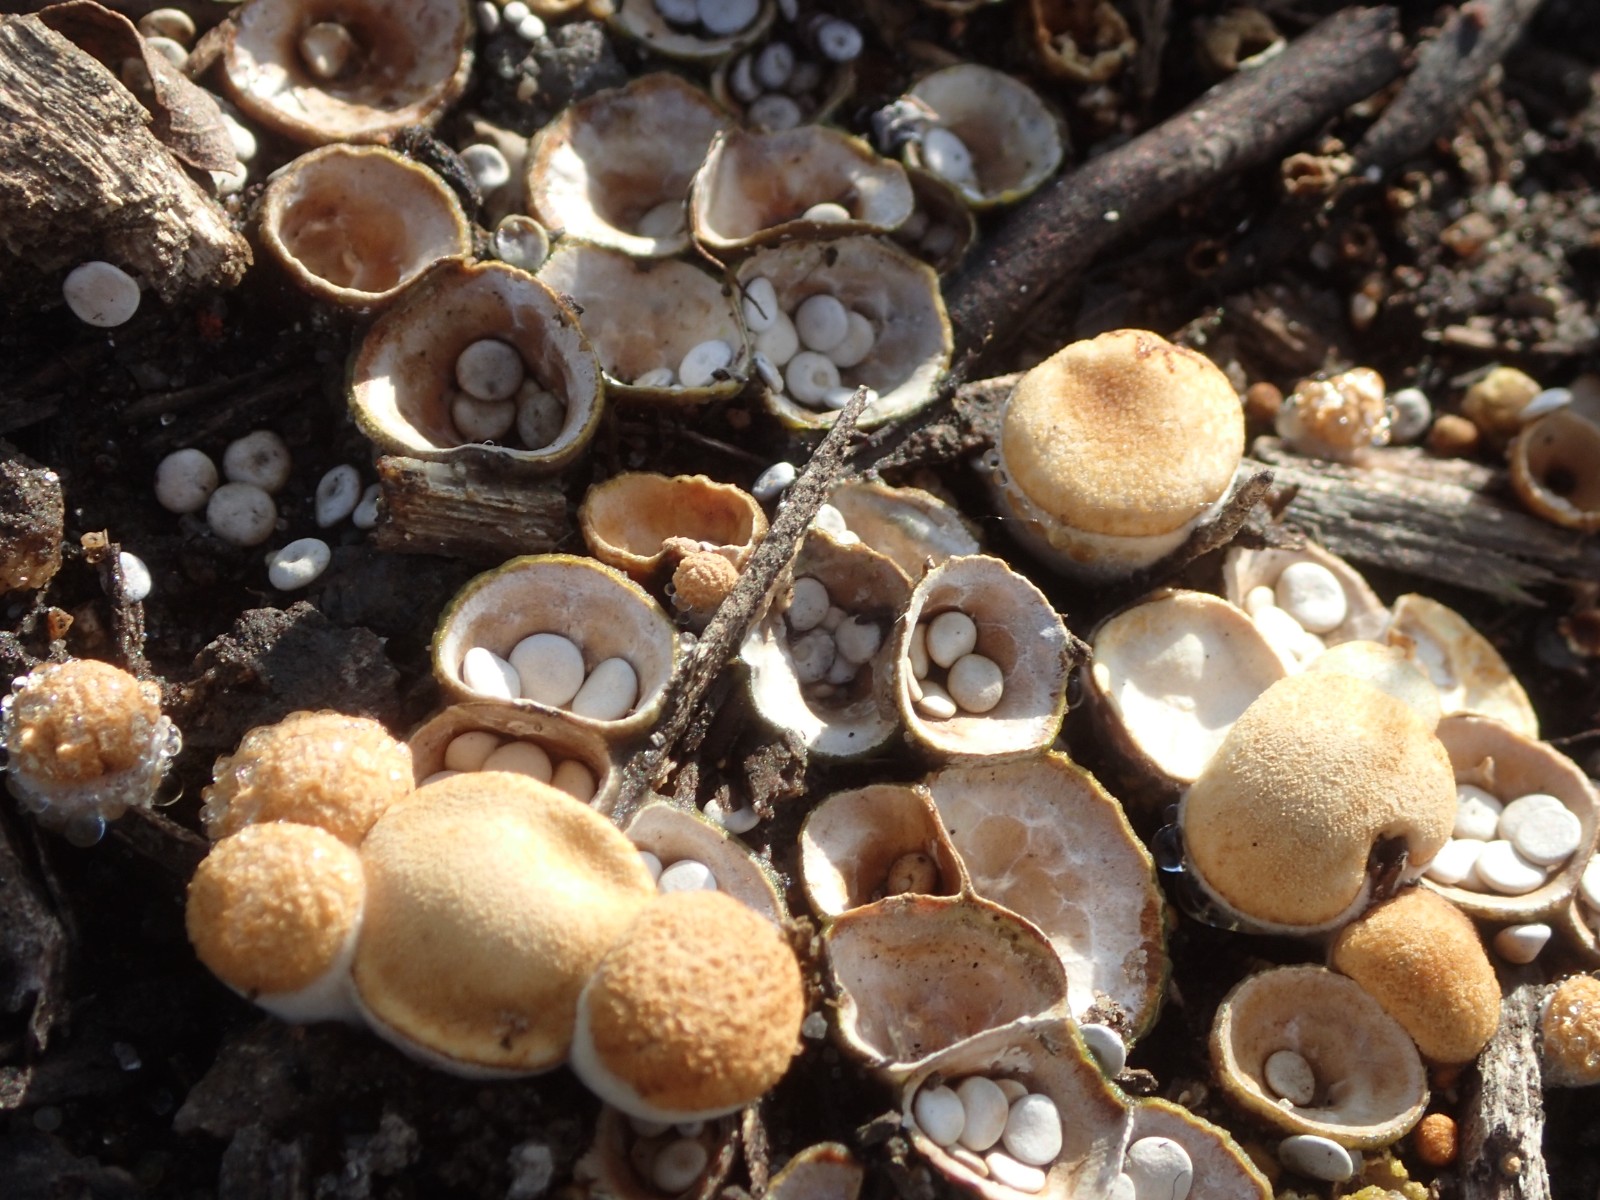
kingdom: Fungi
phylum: Basidiomycota
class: Agaricomycetes
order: Agaricales
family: Nidulariaceae
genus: Crucibulum
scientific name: Crucibulum crucibuliforme
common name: krukkesvamp
